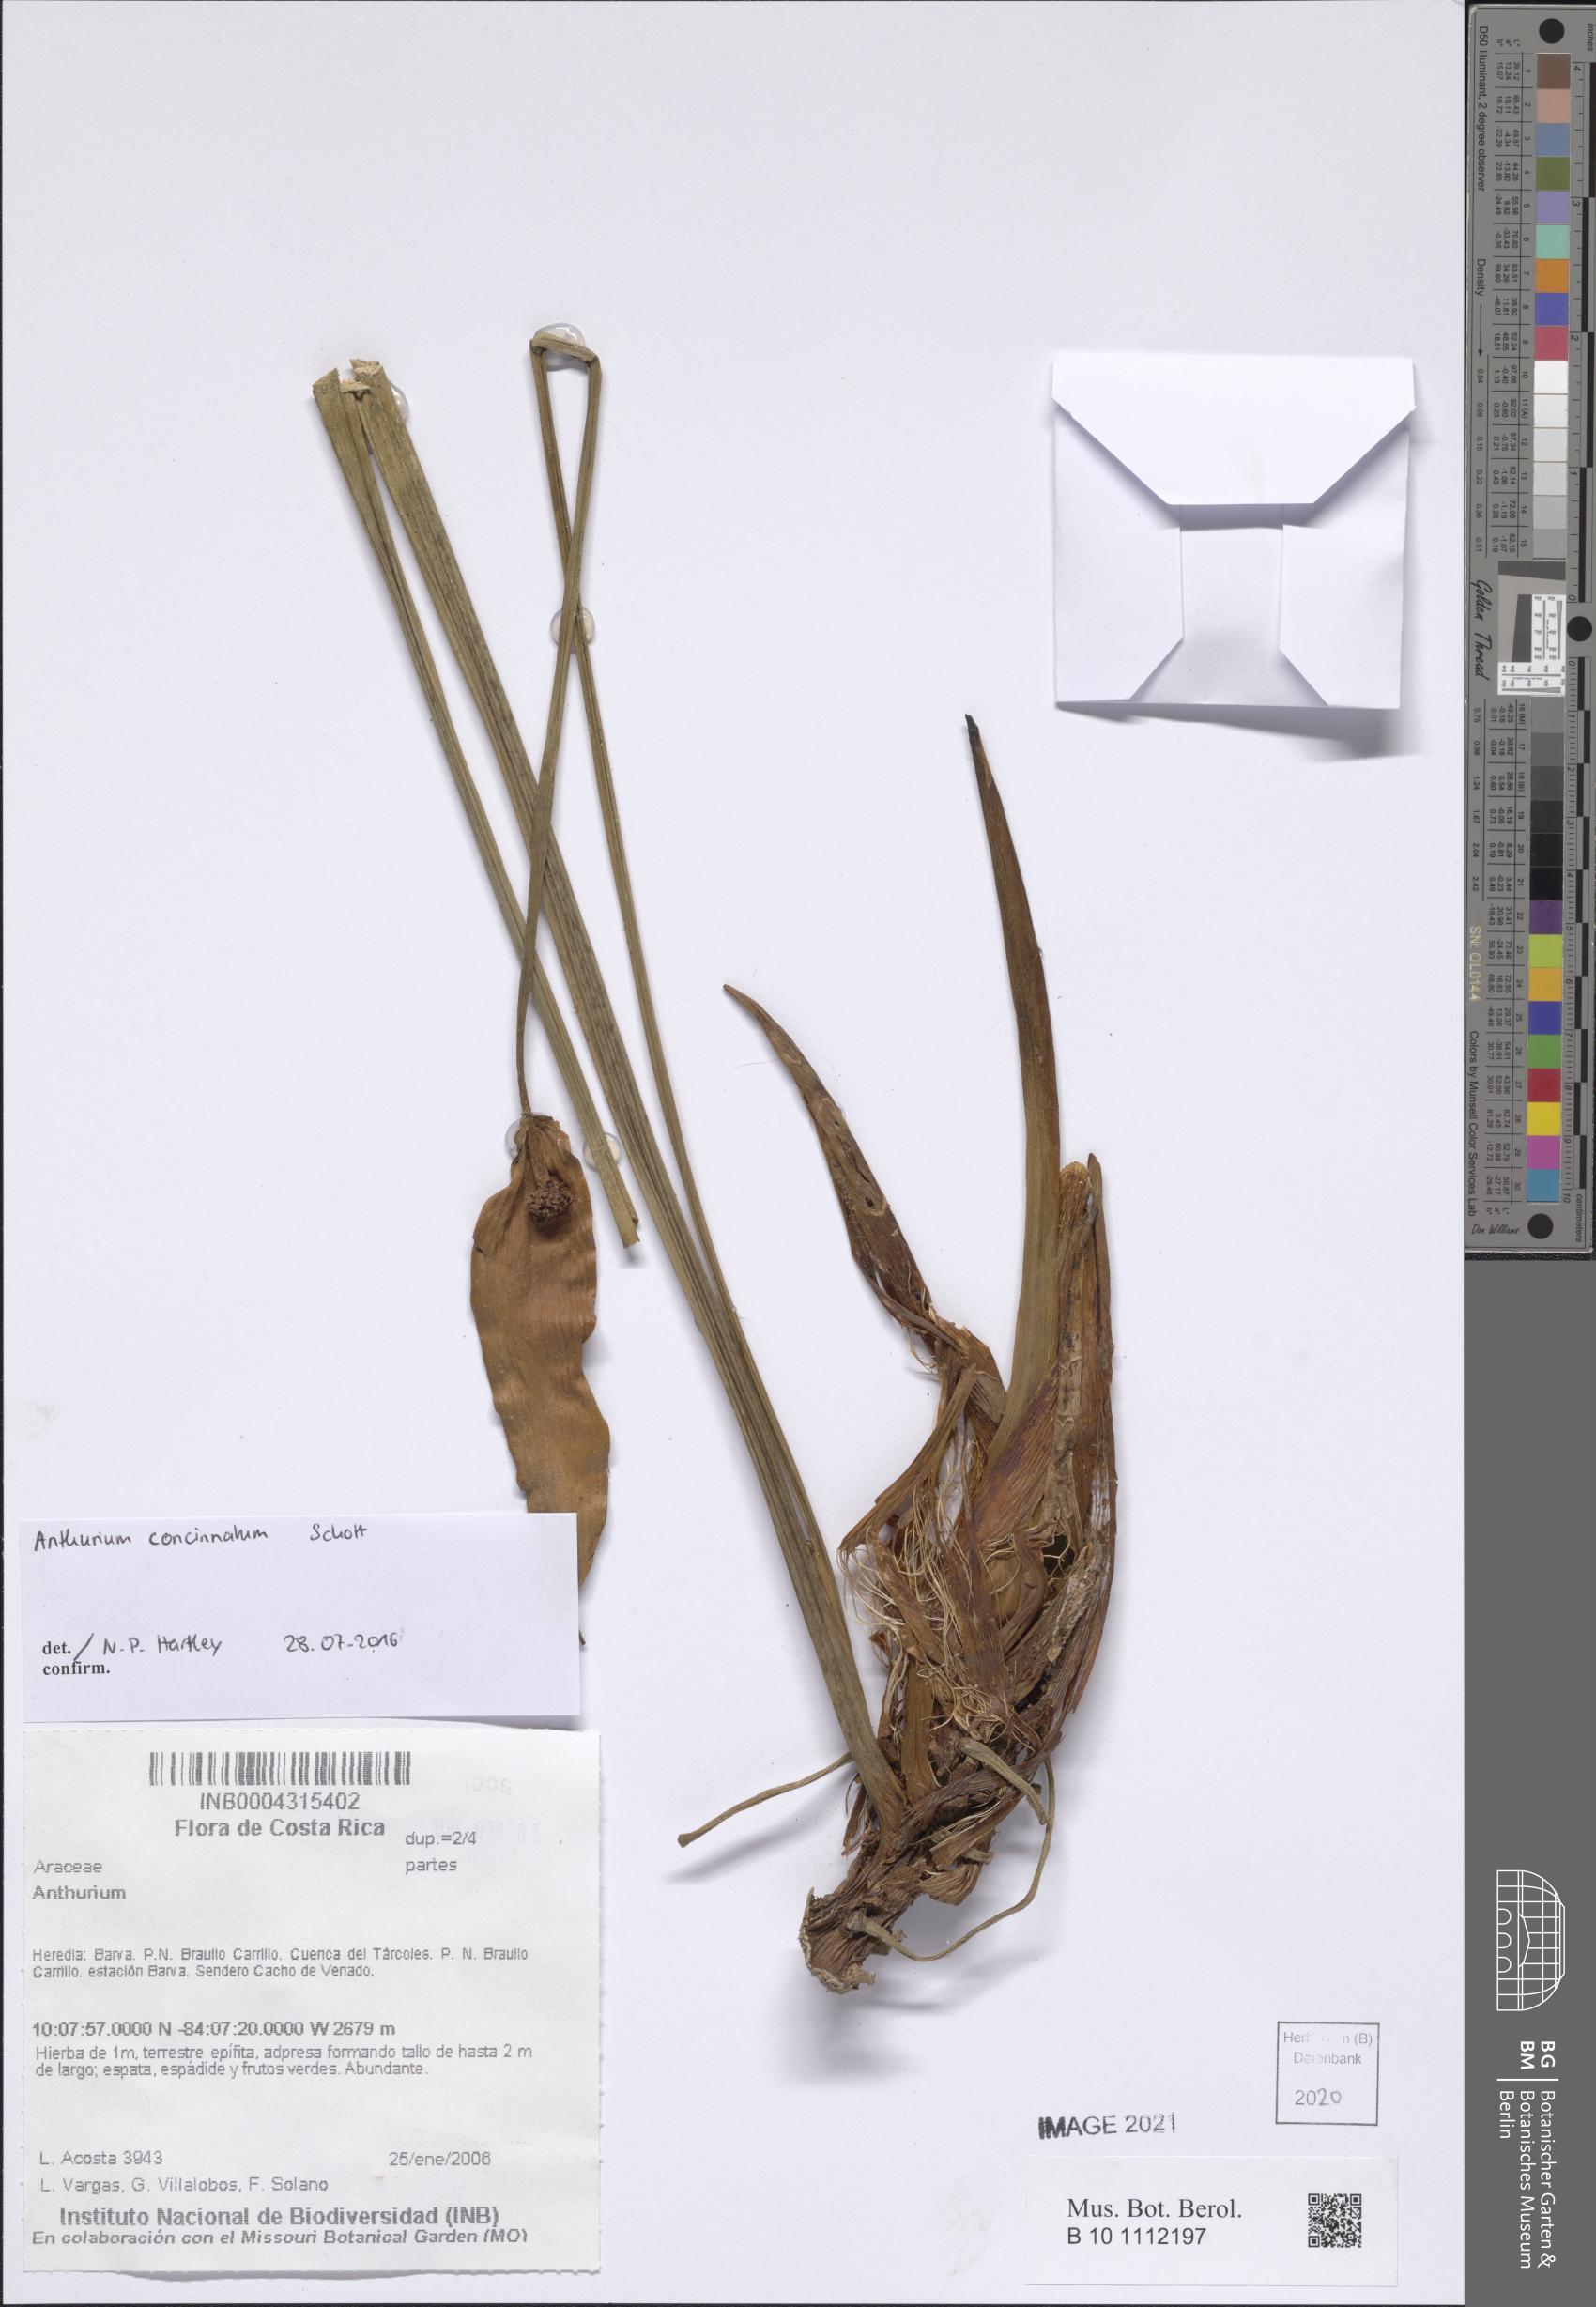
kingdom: Plantae
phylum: Tracheophyta
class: Liliopsida
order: Alismatales
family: Araceae
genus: Anthurium
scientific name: Anthurium
